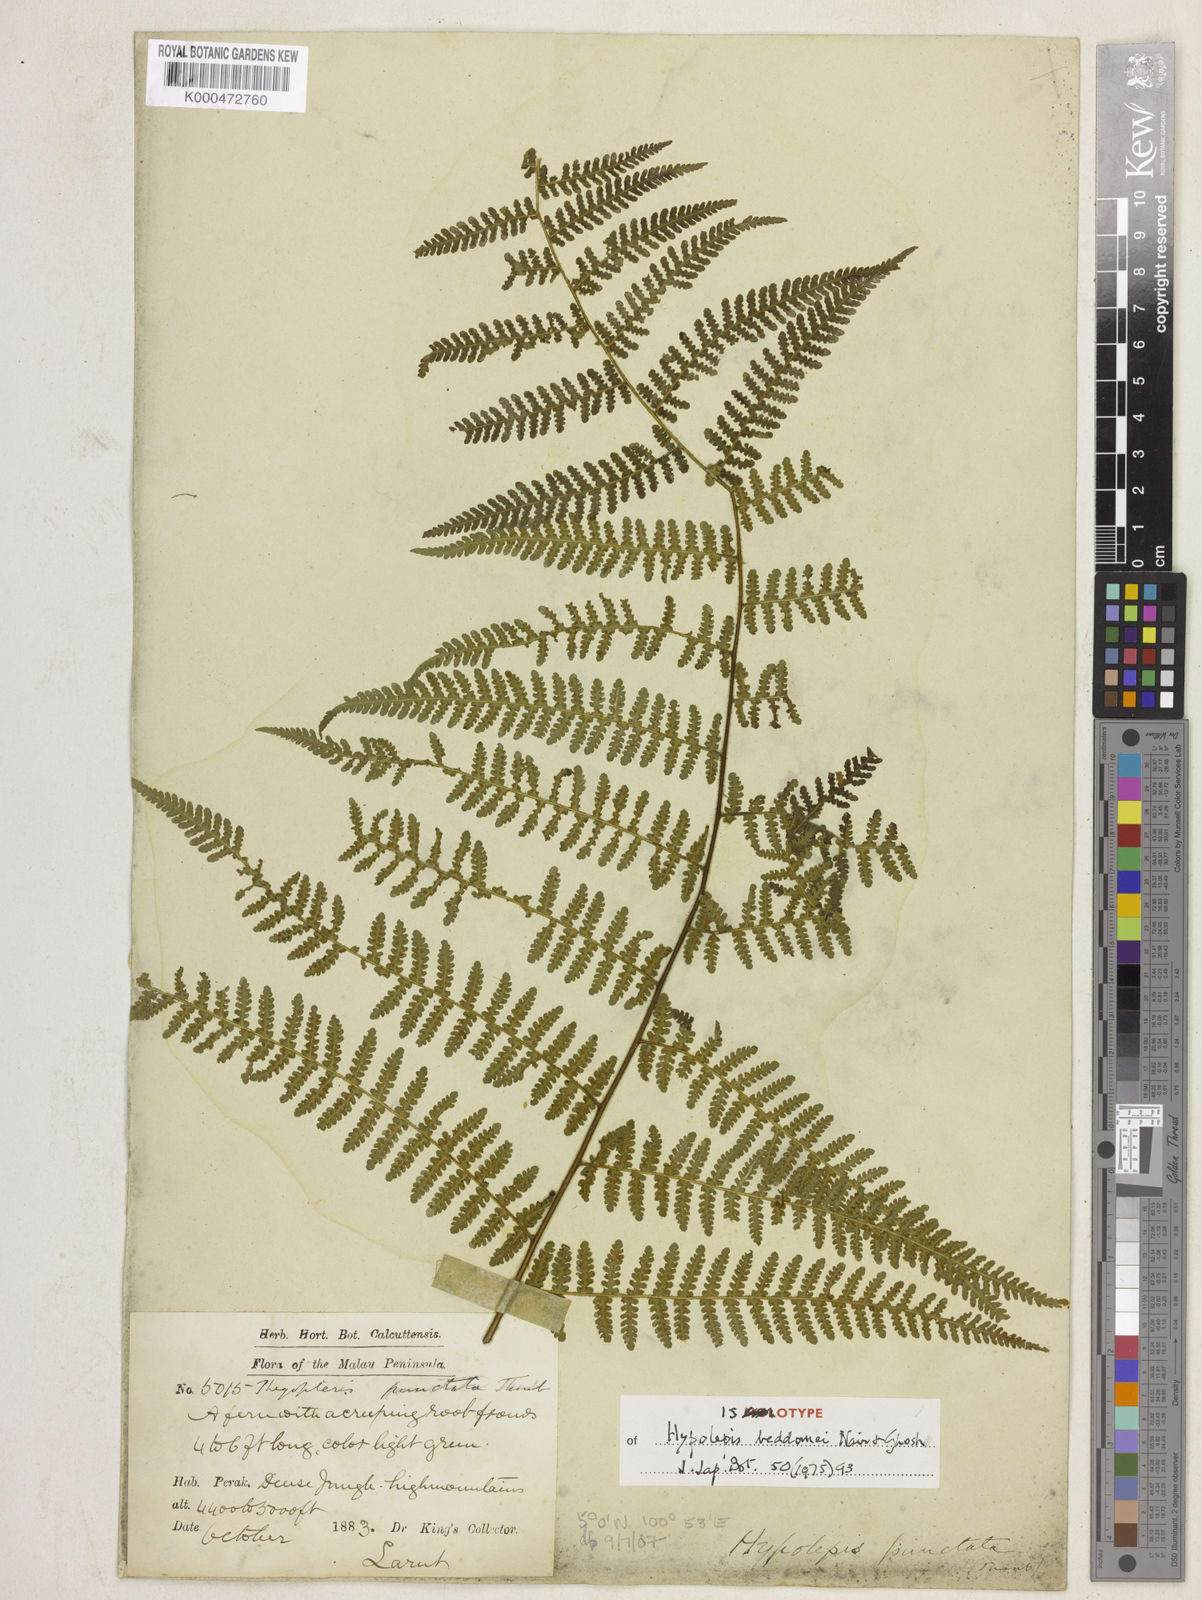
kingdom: Plantae
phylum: Tracheophyta
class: Polypodiopsida
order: Polypodiales
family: Dennstaedtiaceae
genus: Hypolepis
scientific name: Hypolepis pallida
